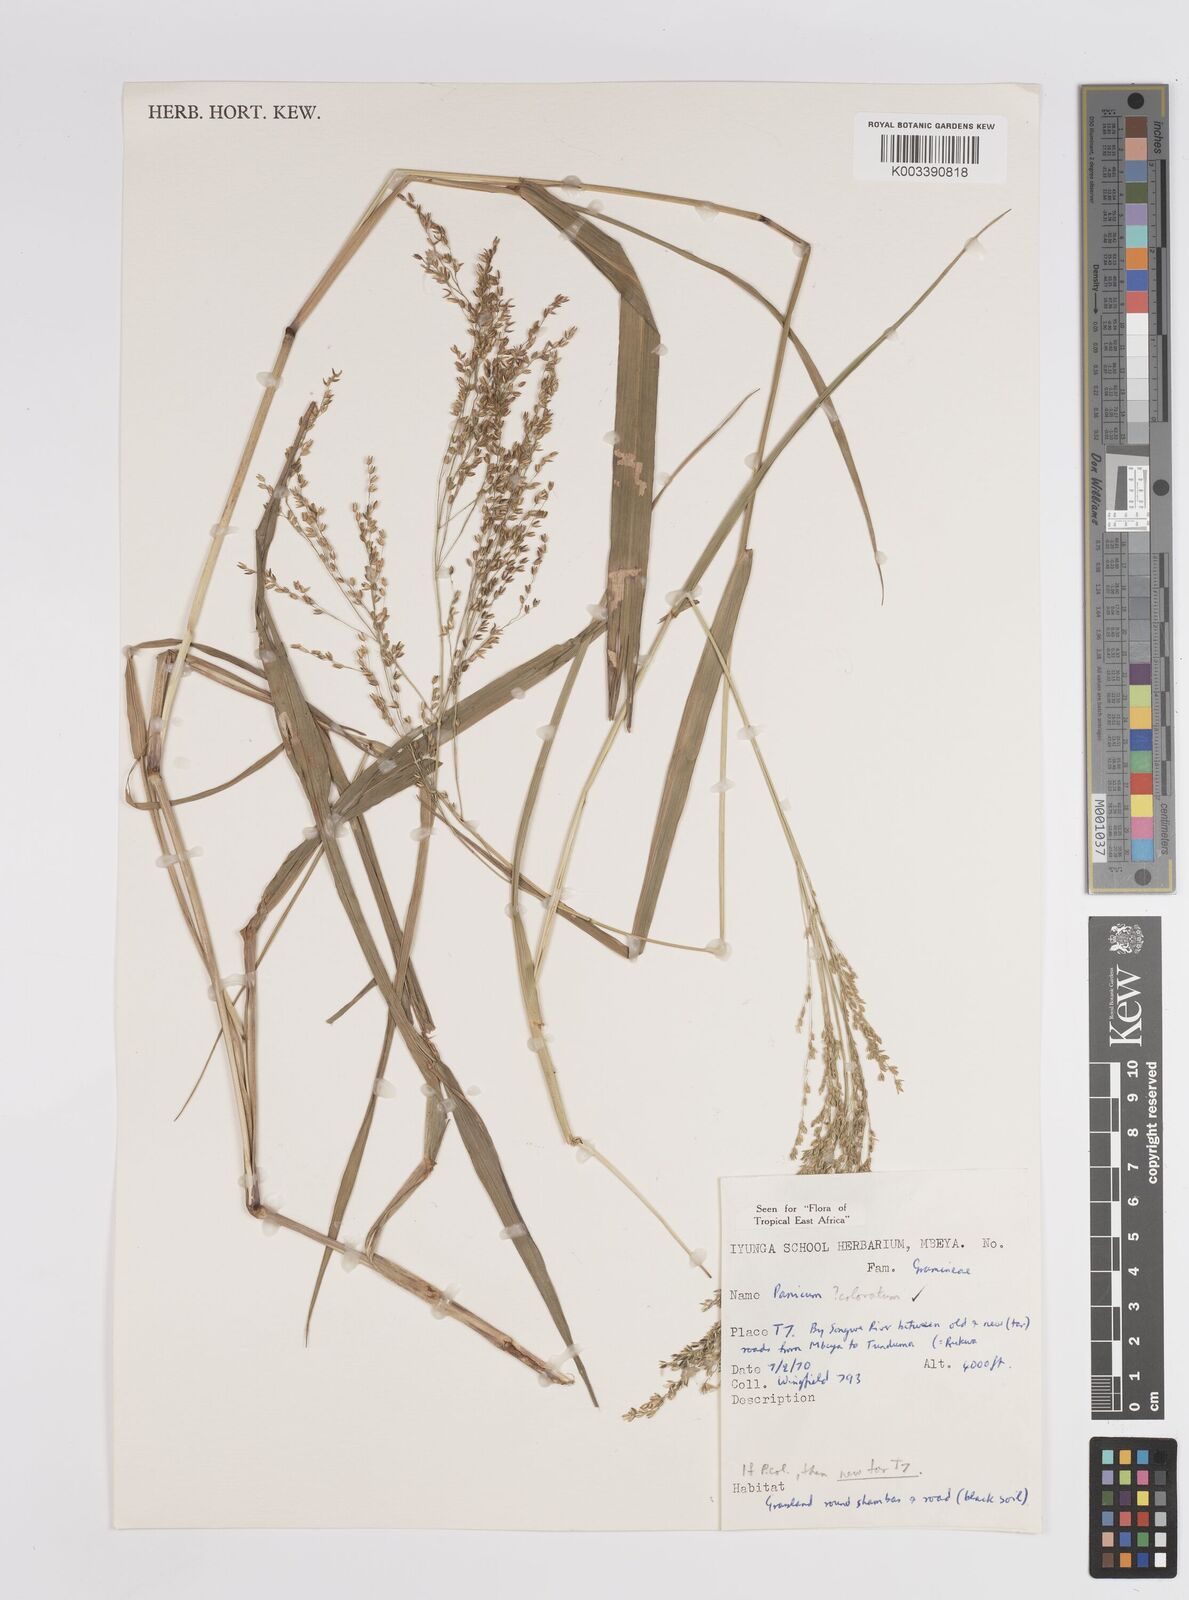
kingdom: Plantae
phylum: Tracheophyta
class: Liliopsida
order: Poales
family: Poaceae
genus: Panicum
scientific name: Panicum coloratum
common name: Kleingrass
